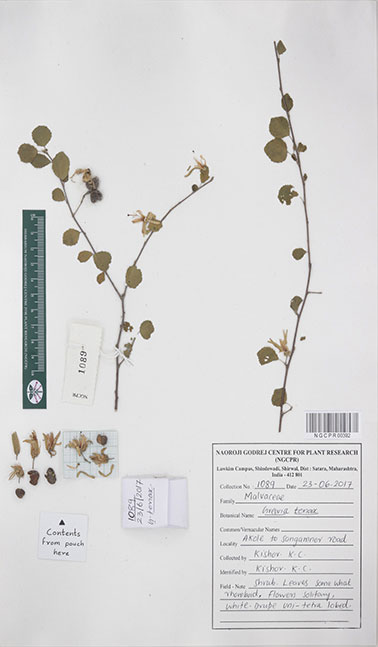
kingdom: Plantae
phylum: Tracheophyta
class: Magnoliopsida
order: Malvales
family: Malvaceae
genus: Grewia
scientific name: Grewia tenax
